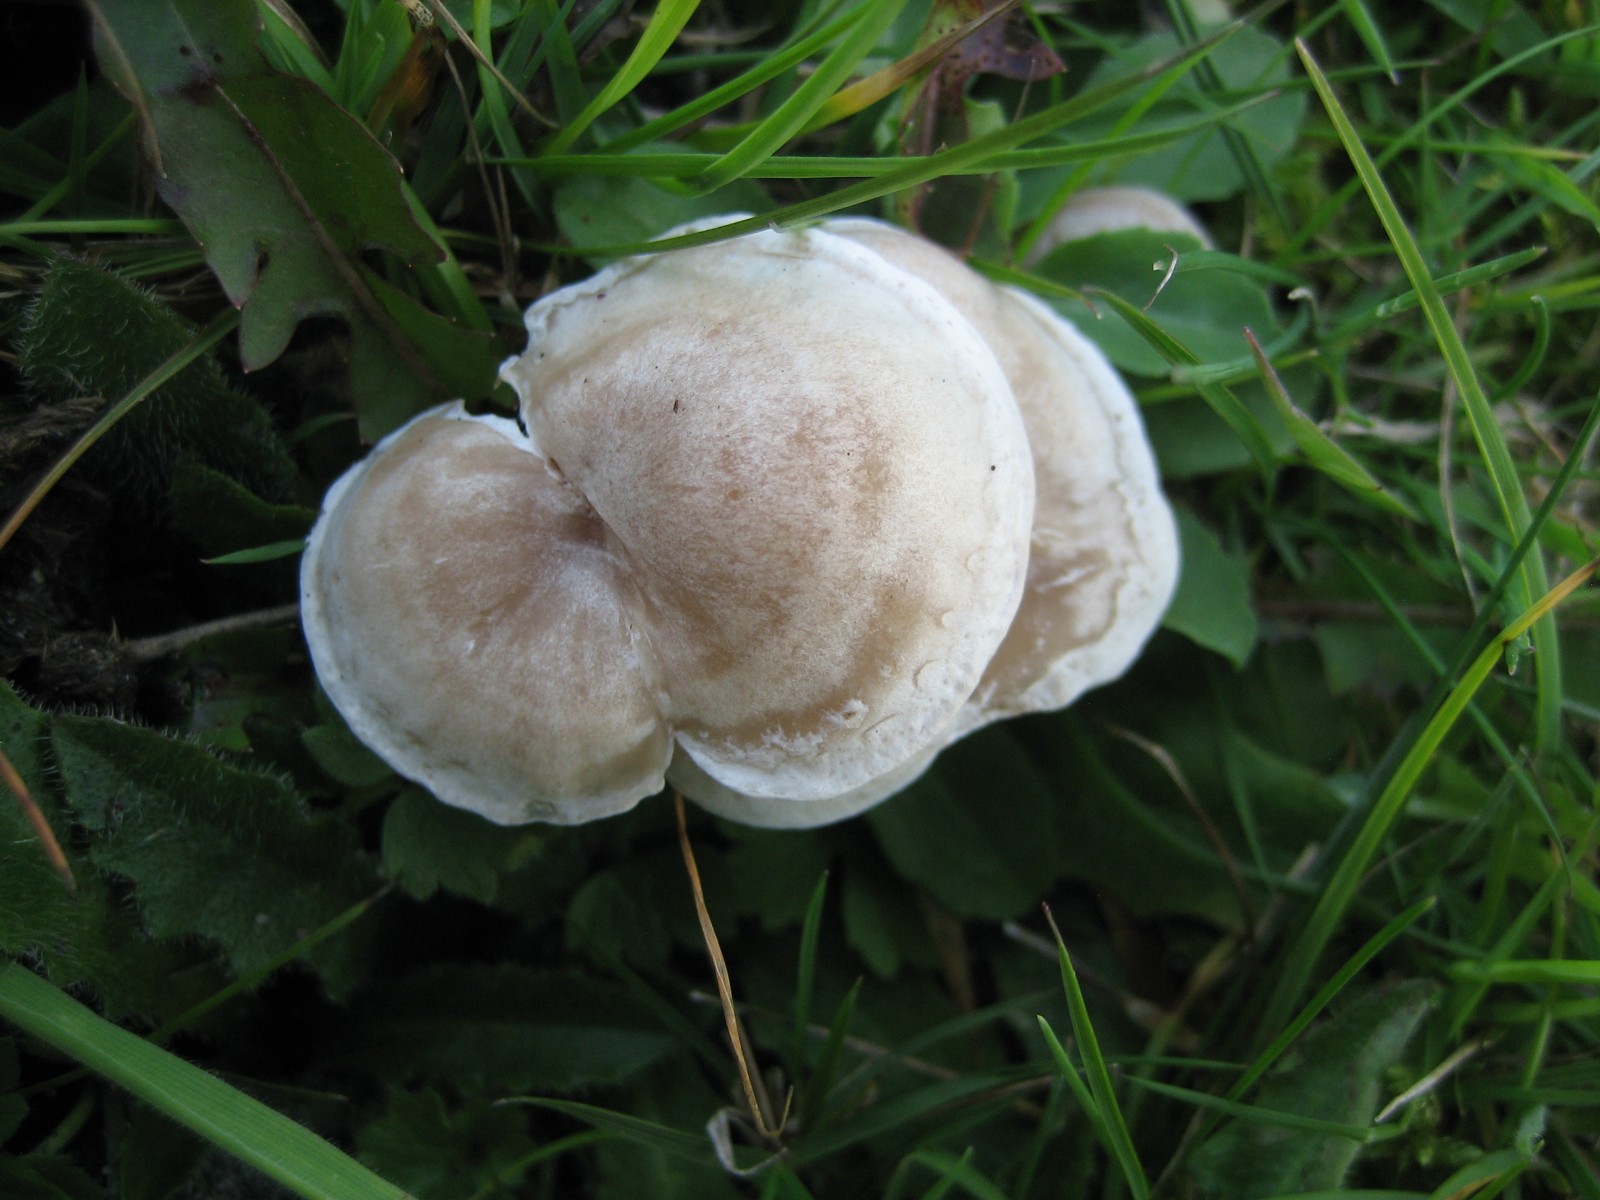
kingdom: Fungi
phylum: Basidiomycota
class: Agaricomycetes
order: Agaricales
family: Tricholomataceae
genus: Clitocybe
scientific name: Clitocybe rivulosa
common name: eng-tragthat
